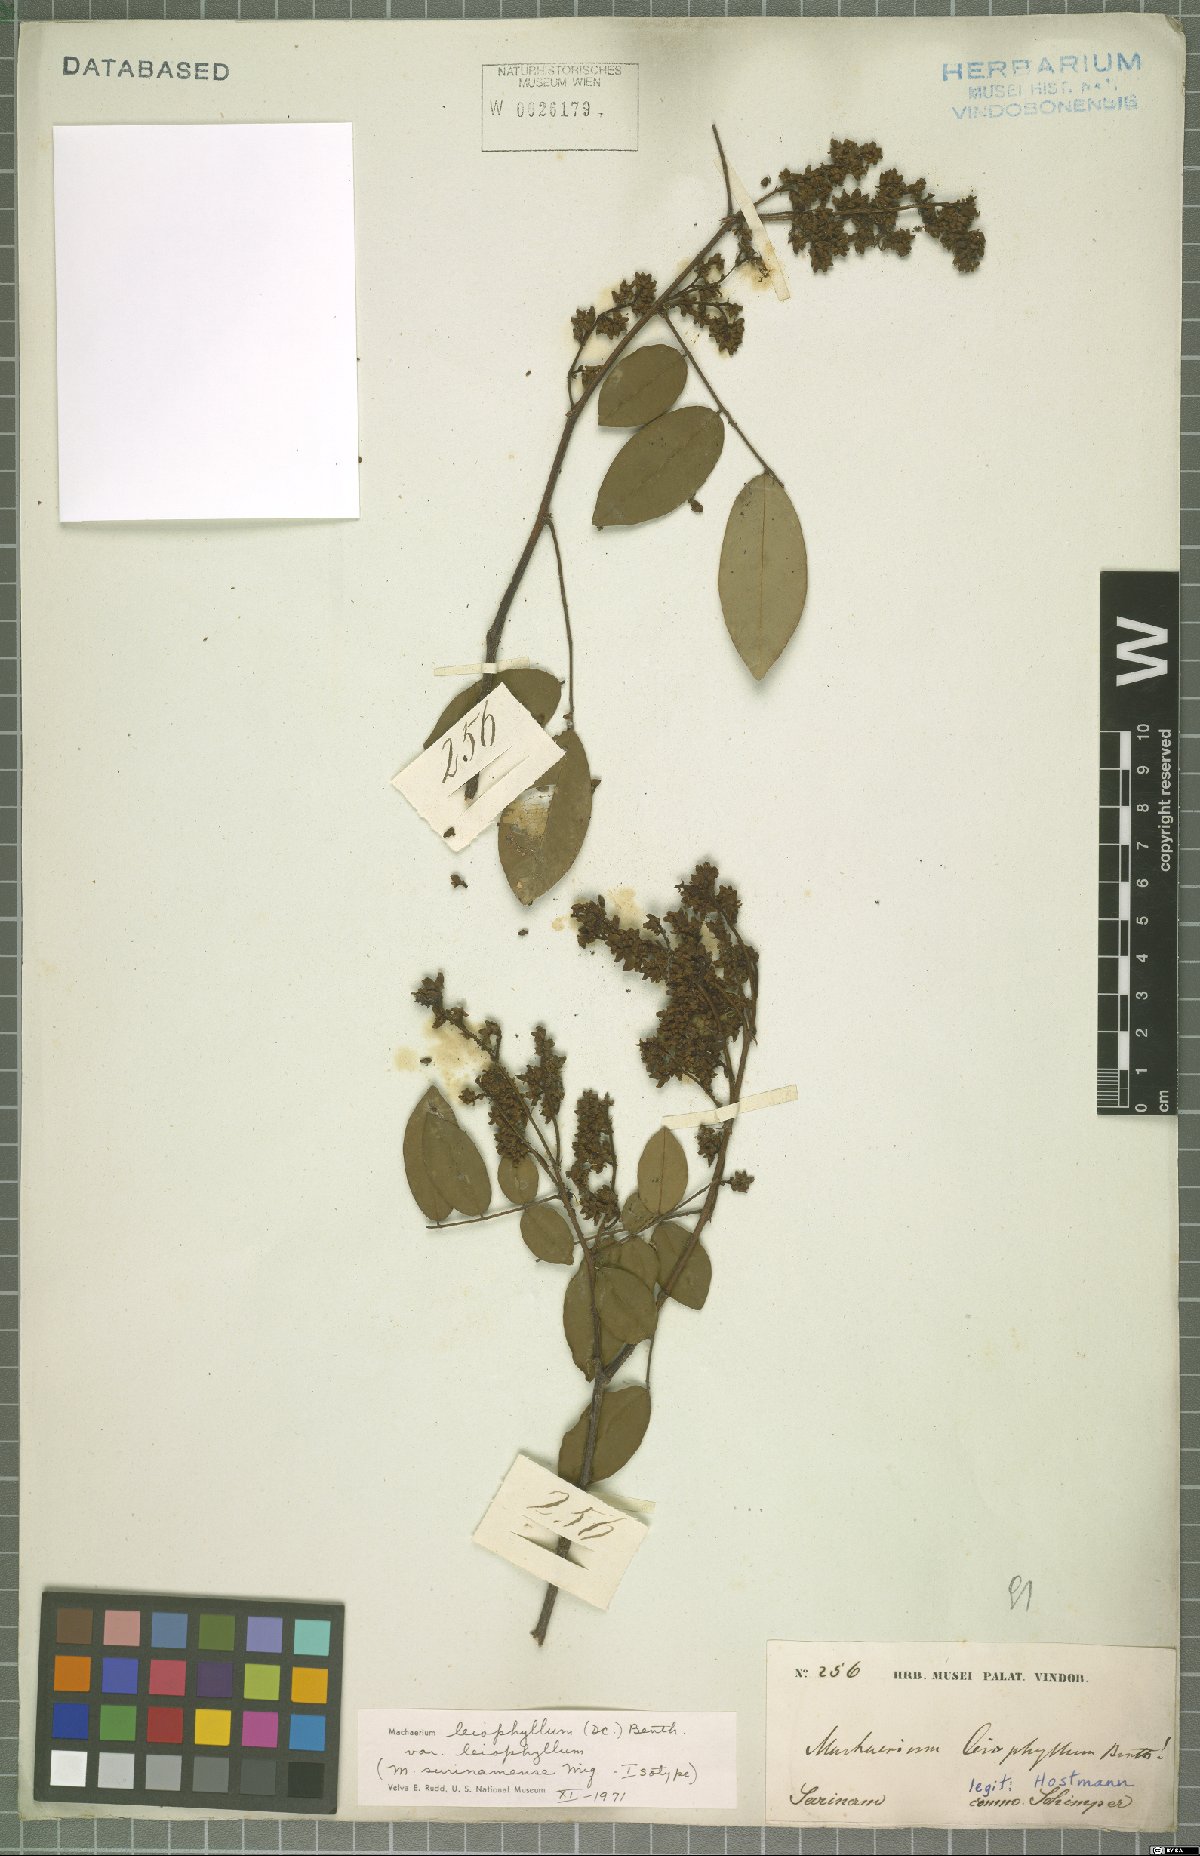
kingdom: Plantae
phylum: Tracheophyta
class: Magnoliopsida
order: Fabales
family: Fabaceae
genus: Machaerium
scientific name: Machaerium leiophyllum
